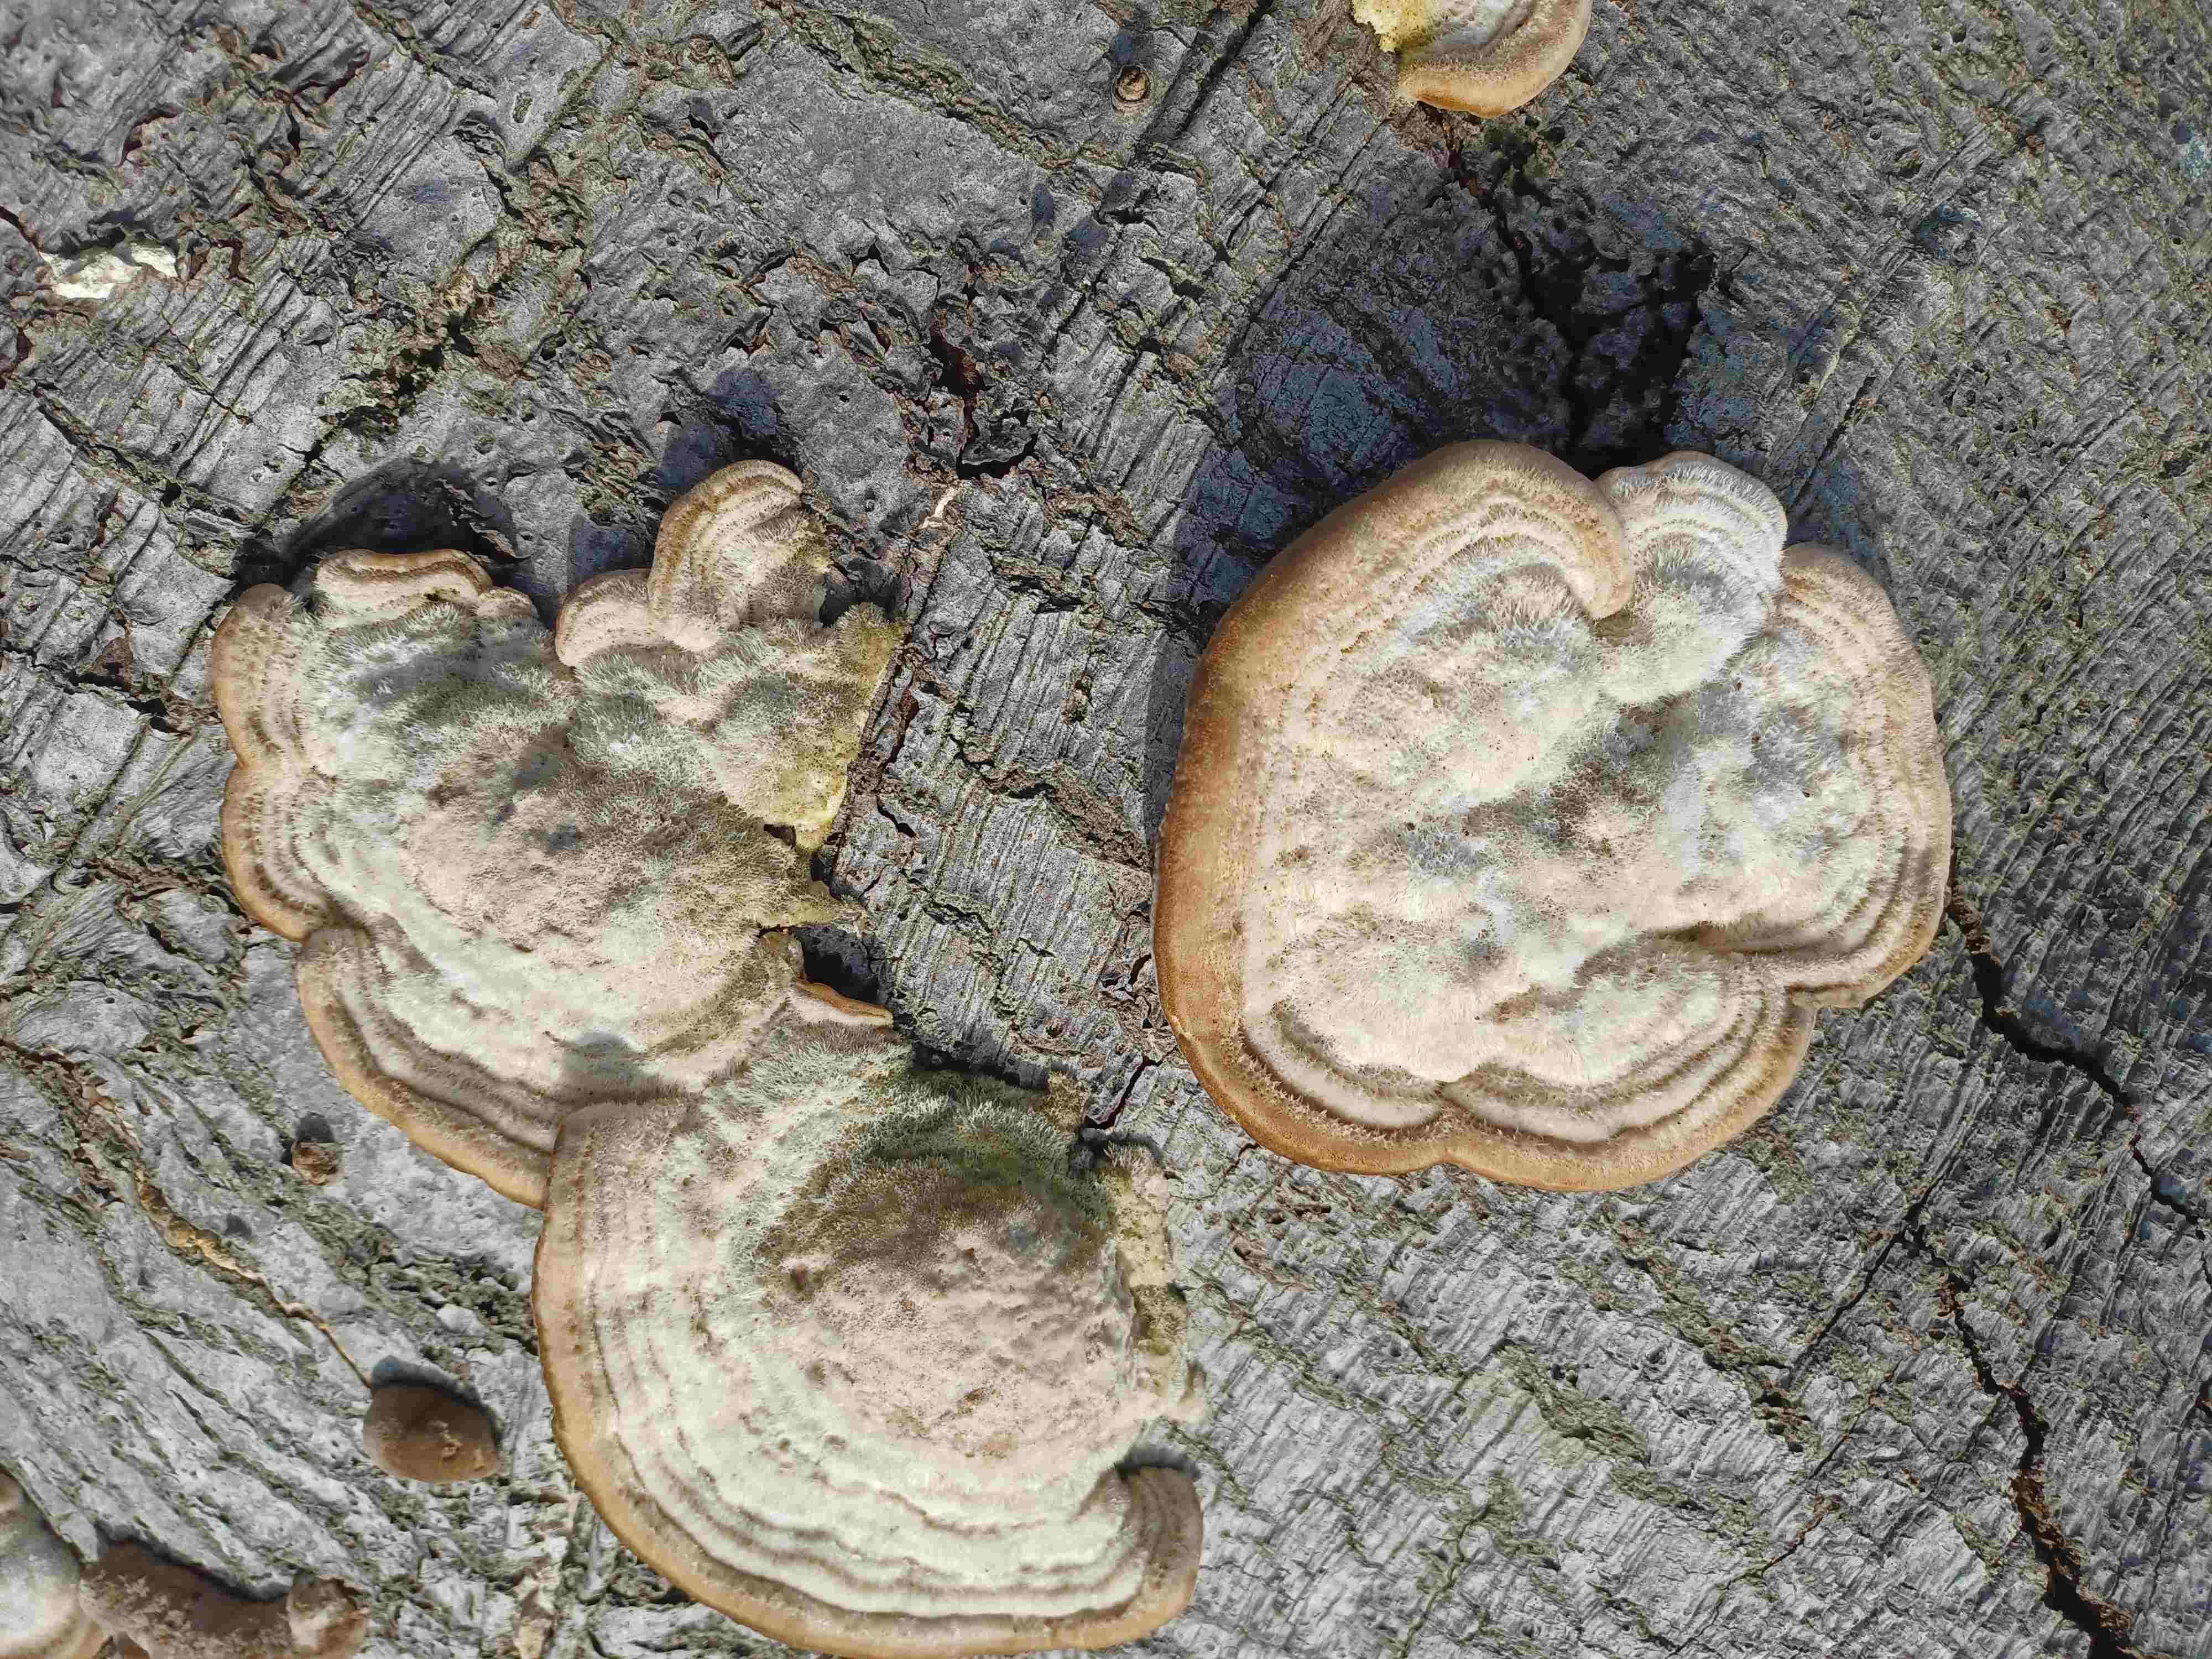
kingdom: Fungi
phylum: Basidiomycota
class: Agaricomycetes
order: Polyporales
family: Polyporaceae
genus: Trametes
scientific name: Trametes hirsuta
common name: håret læderporesvamp
